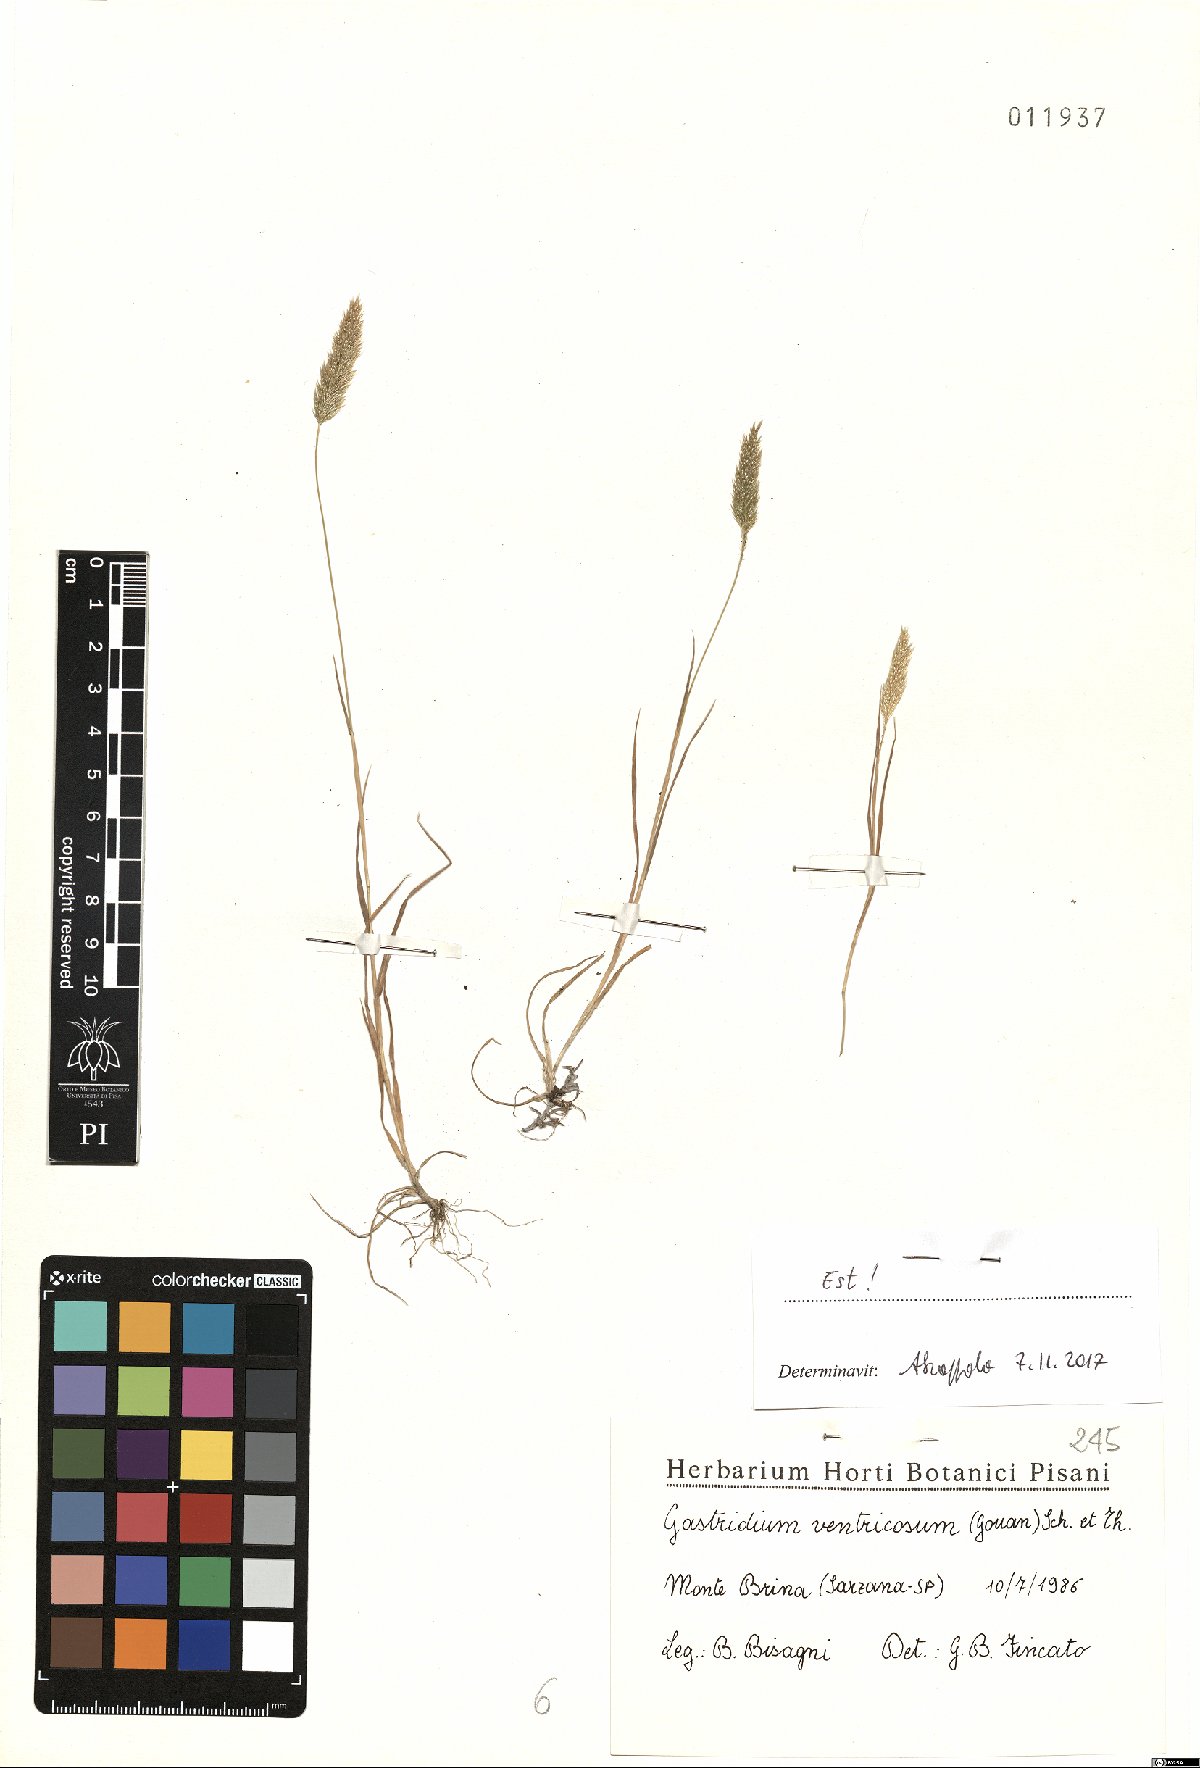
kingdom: Plantae
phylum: Tracheophyta
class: Liliopsida
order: Poales
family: Poaceae
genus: Gastridium
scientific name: Gastridium ventricosum
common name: Nit-grass
